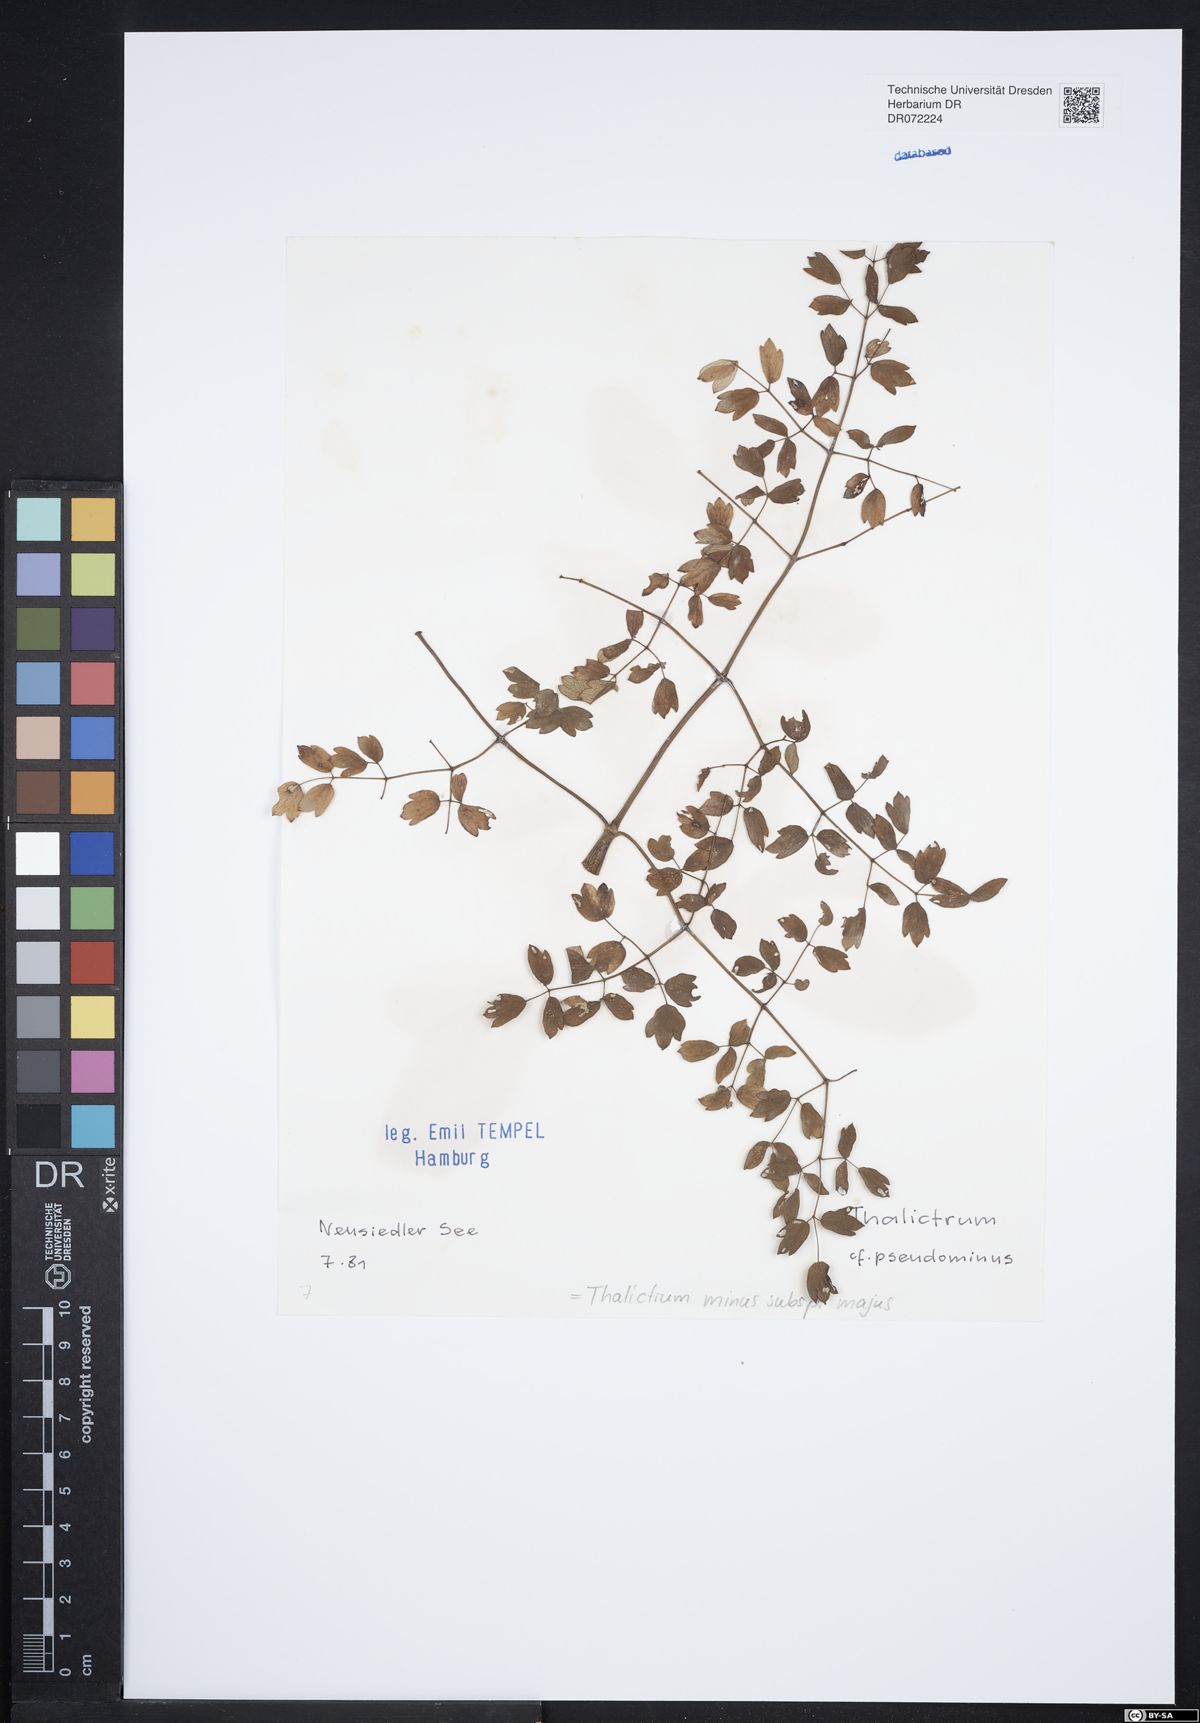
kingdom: Plantae
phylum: Tracheophyta
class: Magnoliopsida
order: Ranunculales
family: Ranunculaceae
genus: Thalictrum
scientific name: Thalictrum minus
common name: Lesser meadow-rue
